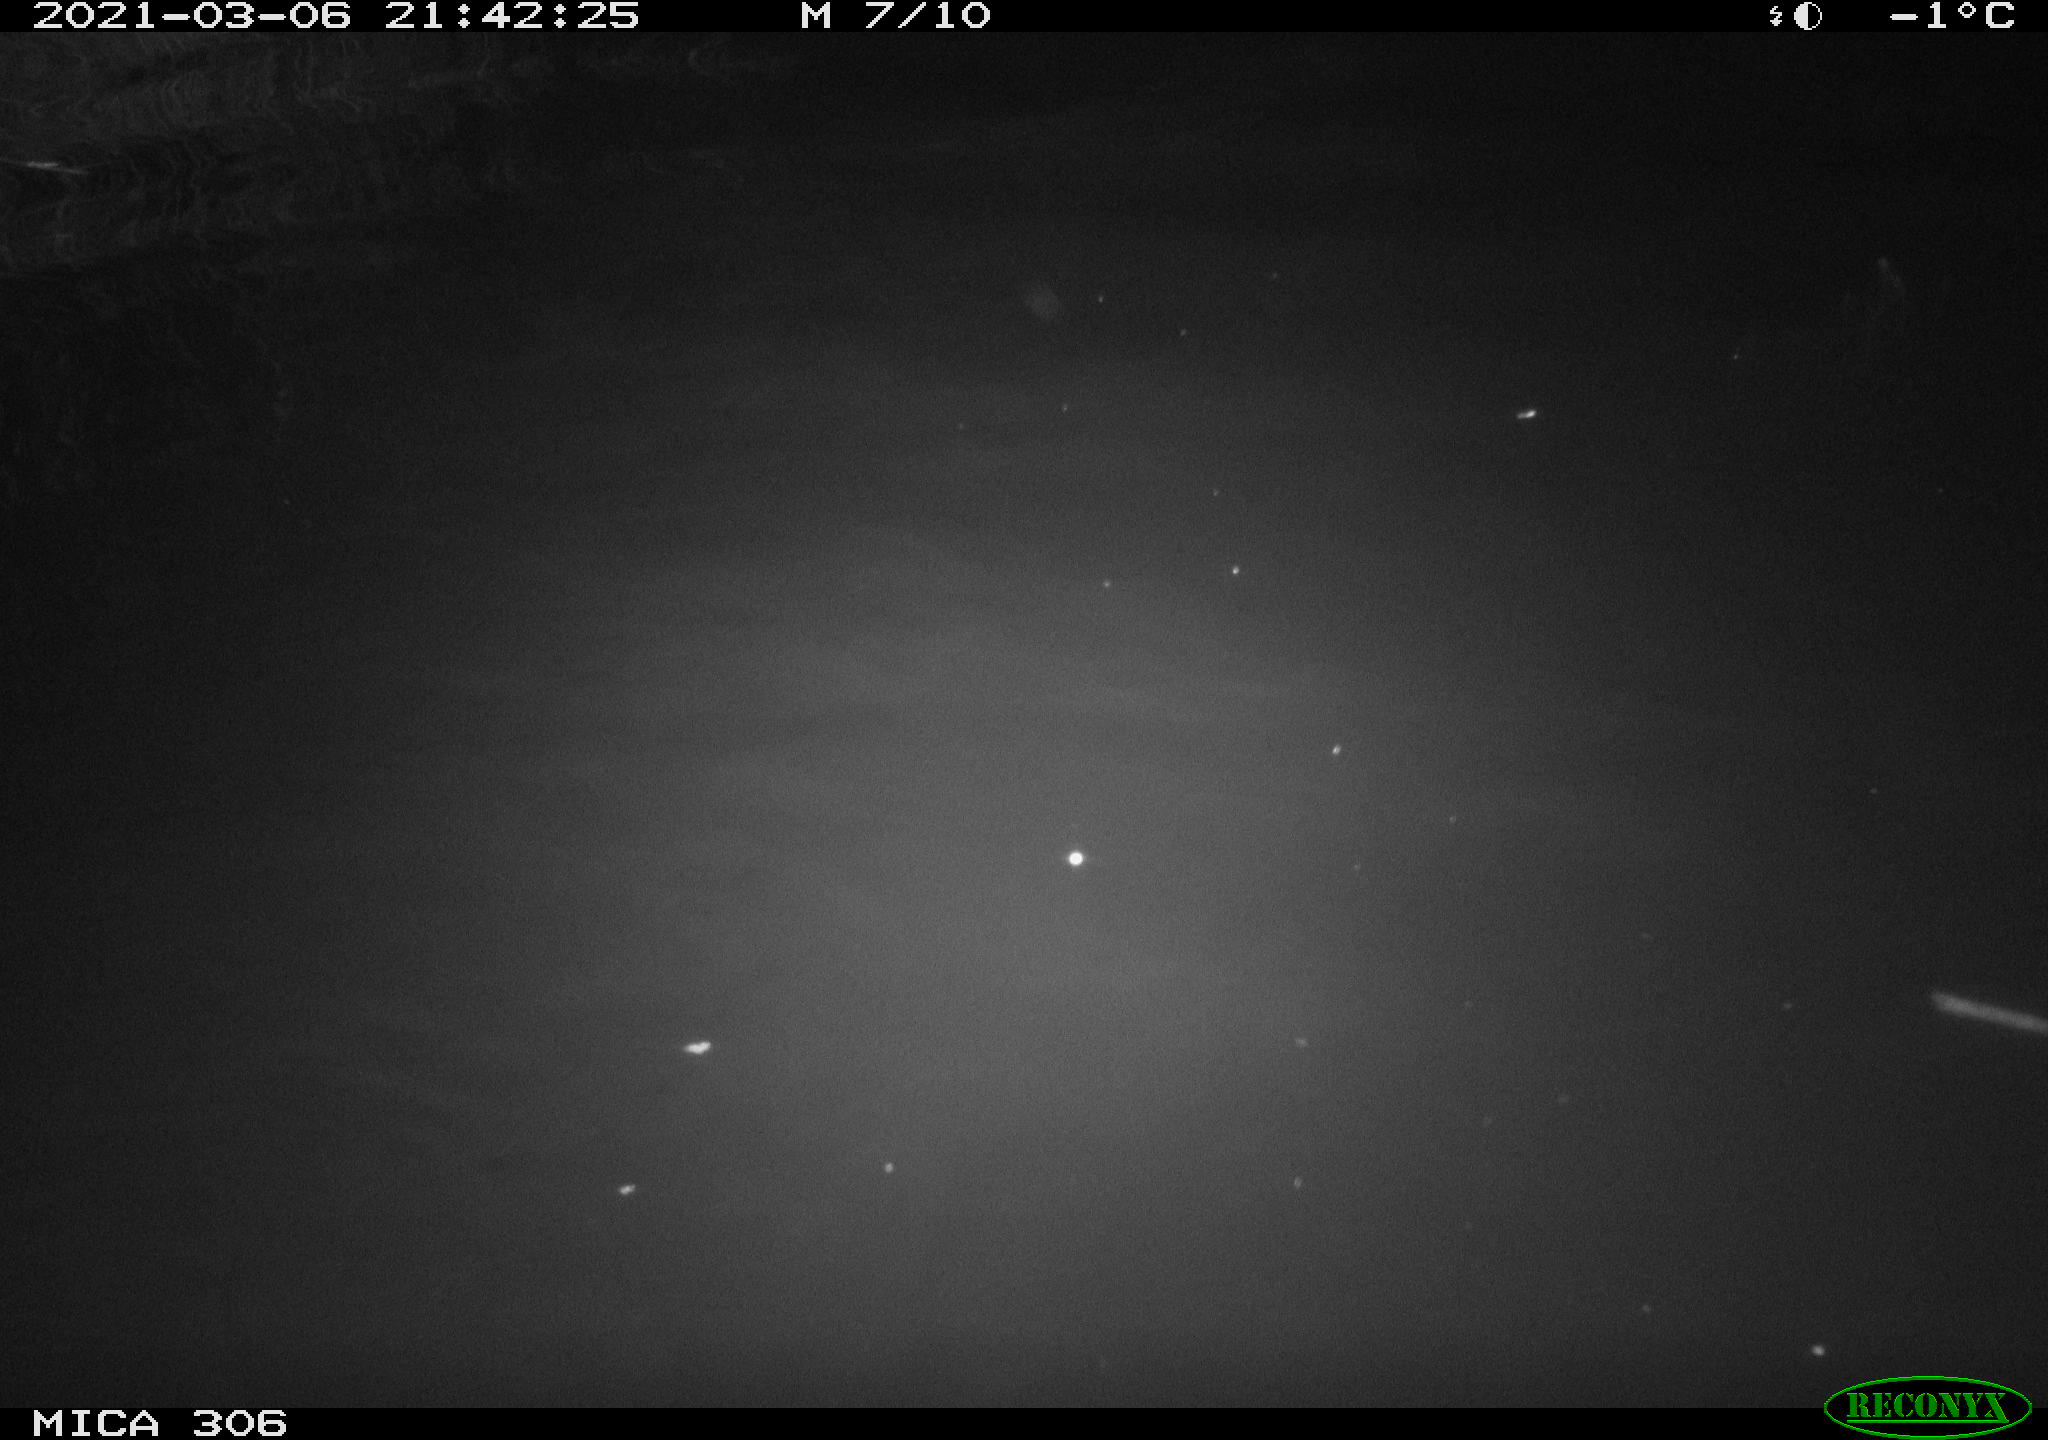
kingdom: Animalia
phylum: Chordata
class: Mammalia
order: Rodentia
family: Cricetidae
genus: Ondatra
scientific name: Ondatra zibethicus
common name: Muskrat
